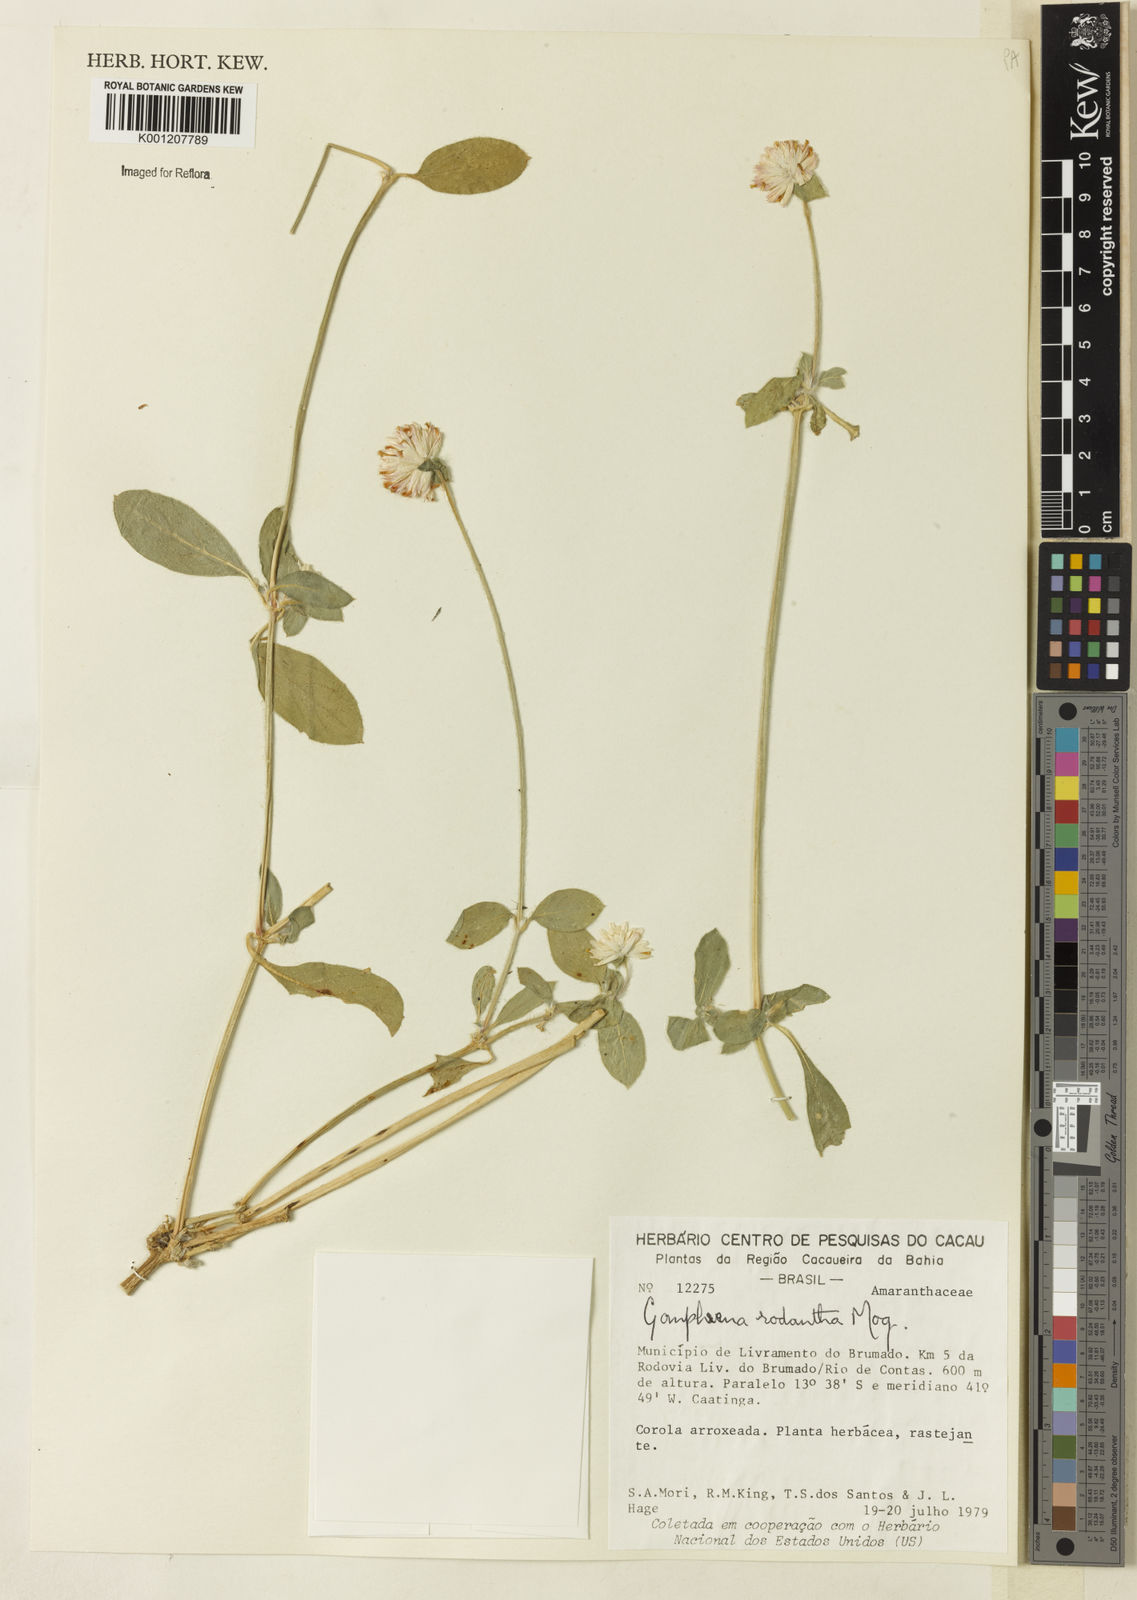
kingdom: Plantae
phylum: Tracheophyta
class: Magnoliopsida
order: Caryophyllales
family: Amaranthaceae
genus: Gomphrena
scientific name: Gomphrena desertorum
